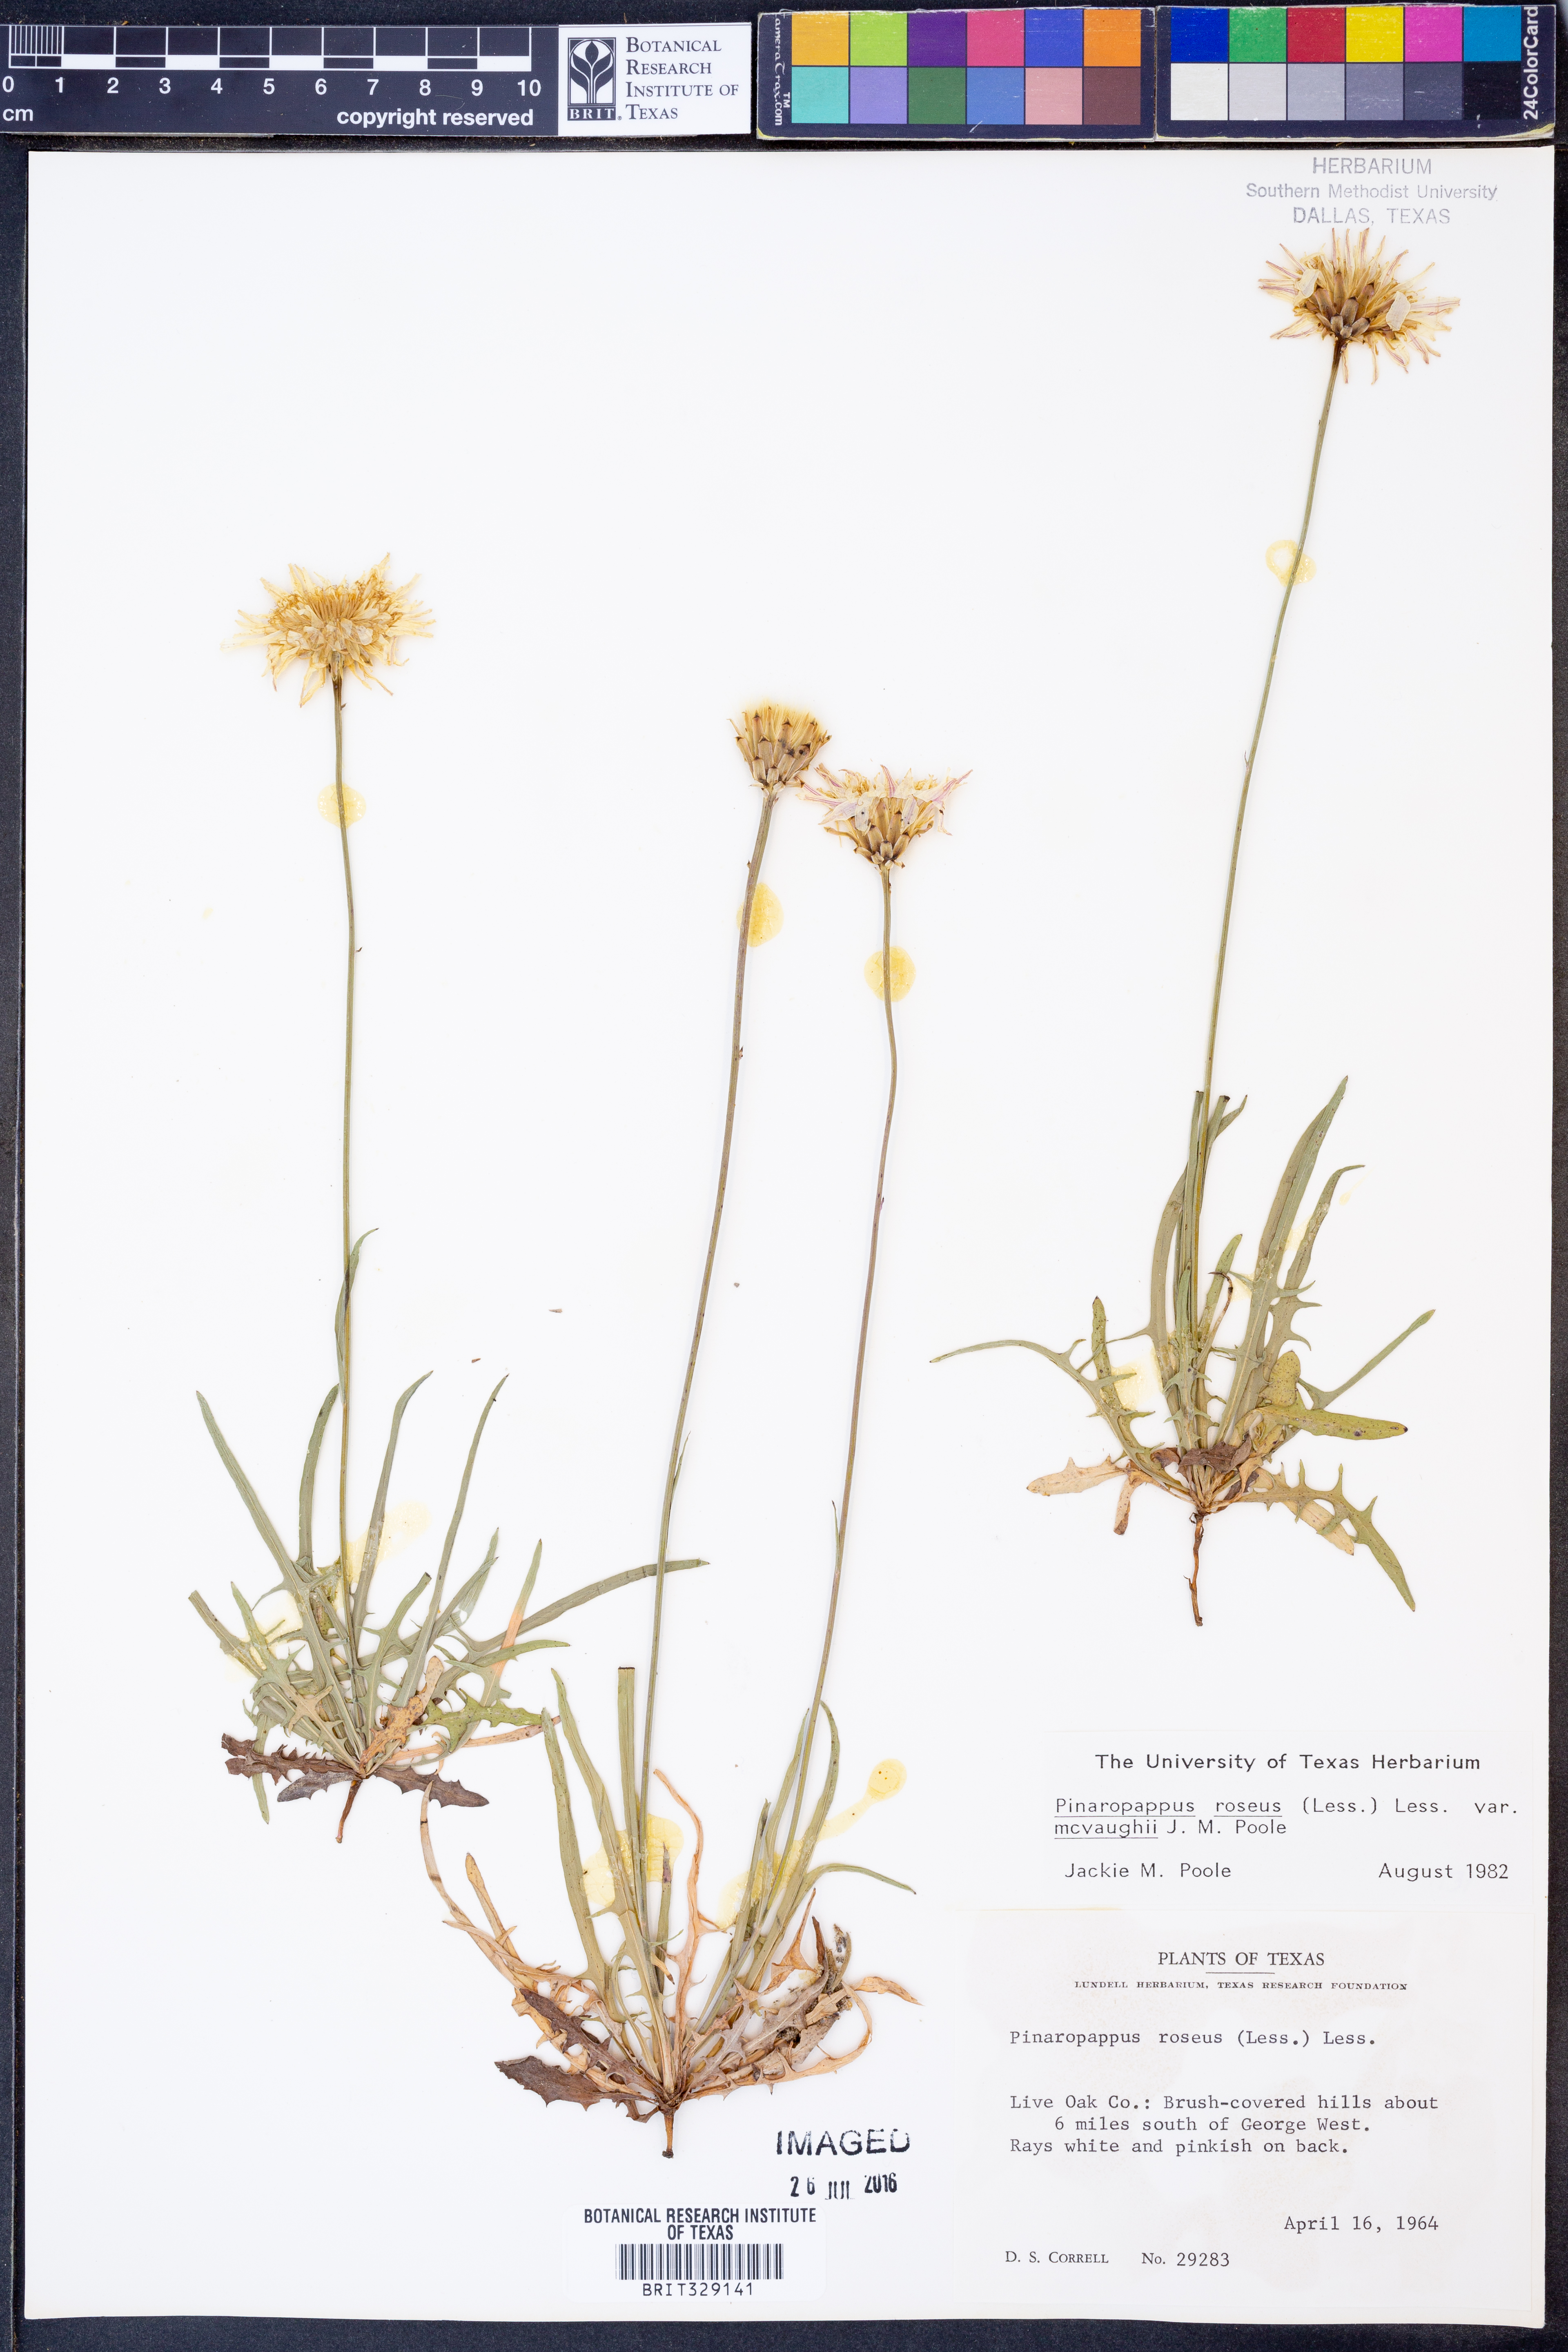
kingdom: Plantae
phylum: Tracheophyta
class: Magnoliopsida
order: Asterales
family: Asteraceae
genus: Pinaropappus
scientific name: Pinaropappus roseus
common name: Rock-lettuce
